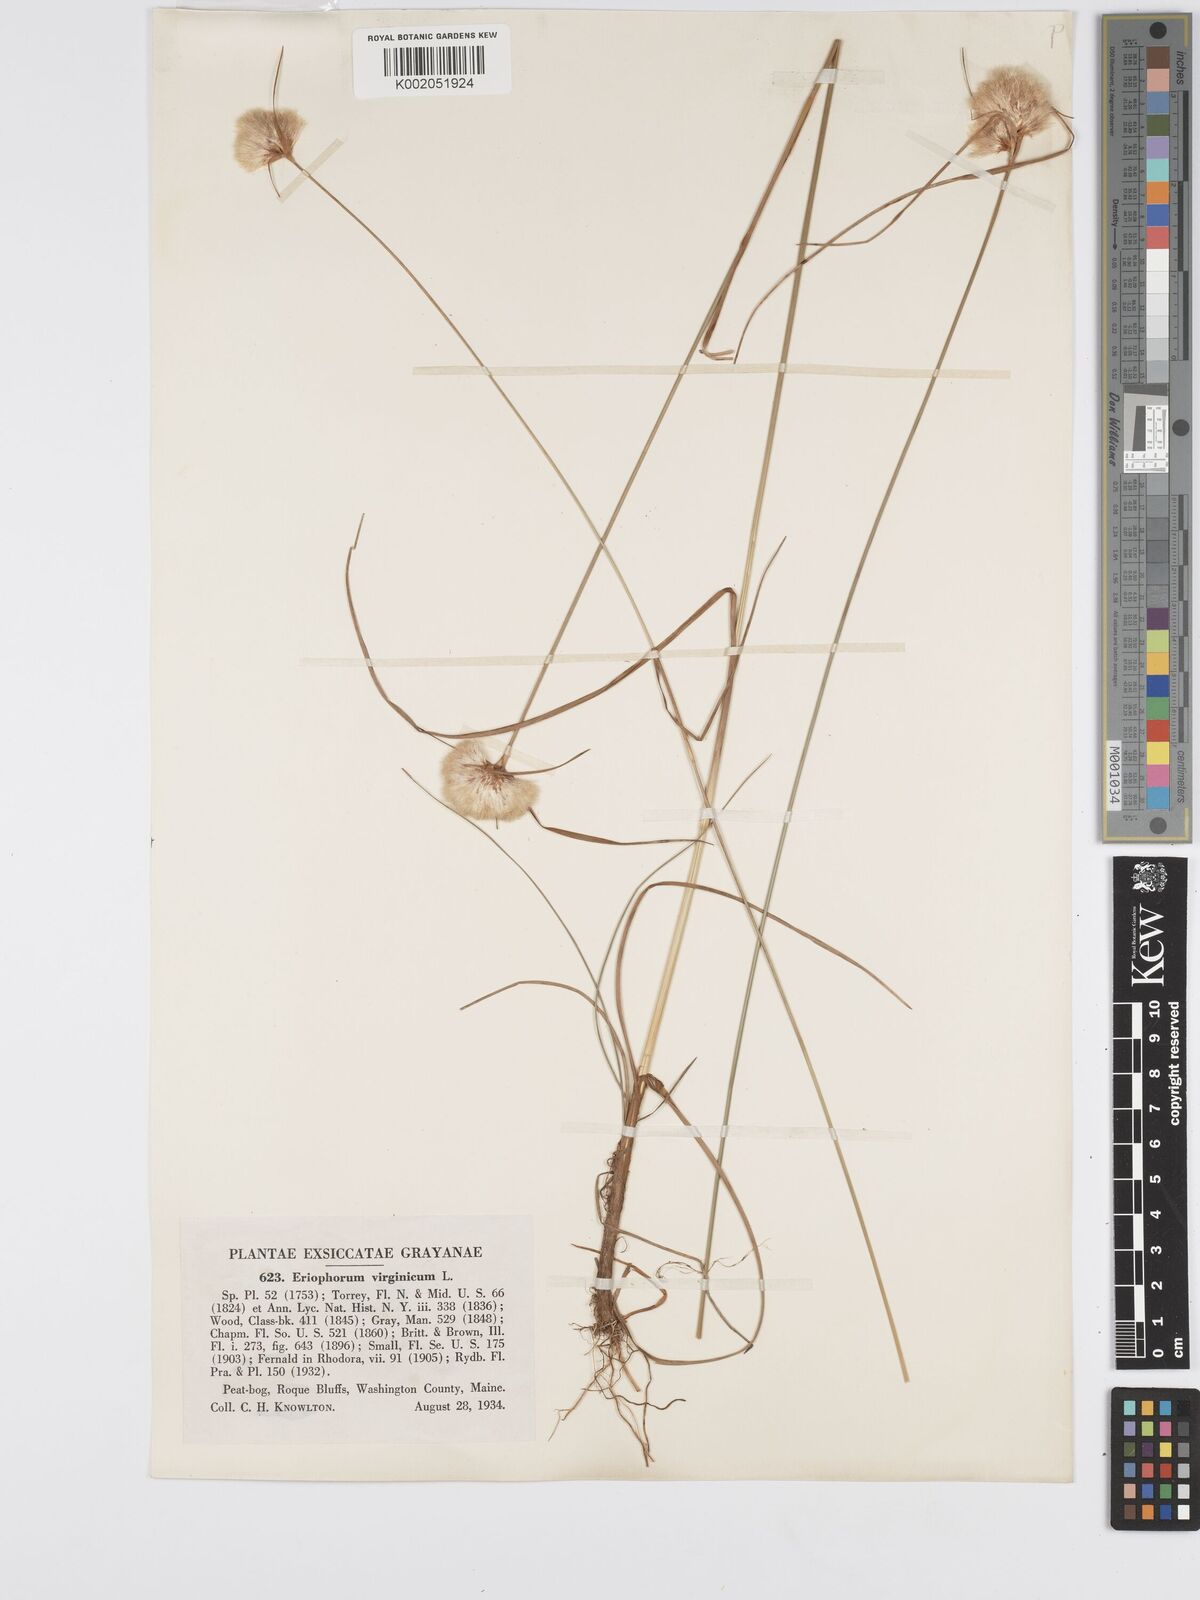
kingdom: Plantae
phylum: Tracheophyta
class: Liliopsida
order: Poales
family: Cyperaceae
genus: Eriophorum
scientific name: Eriophorum virginicum
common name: Tawny cottongrass
